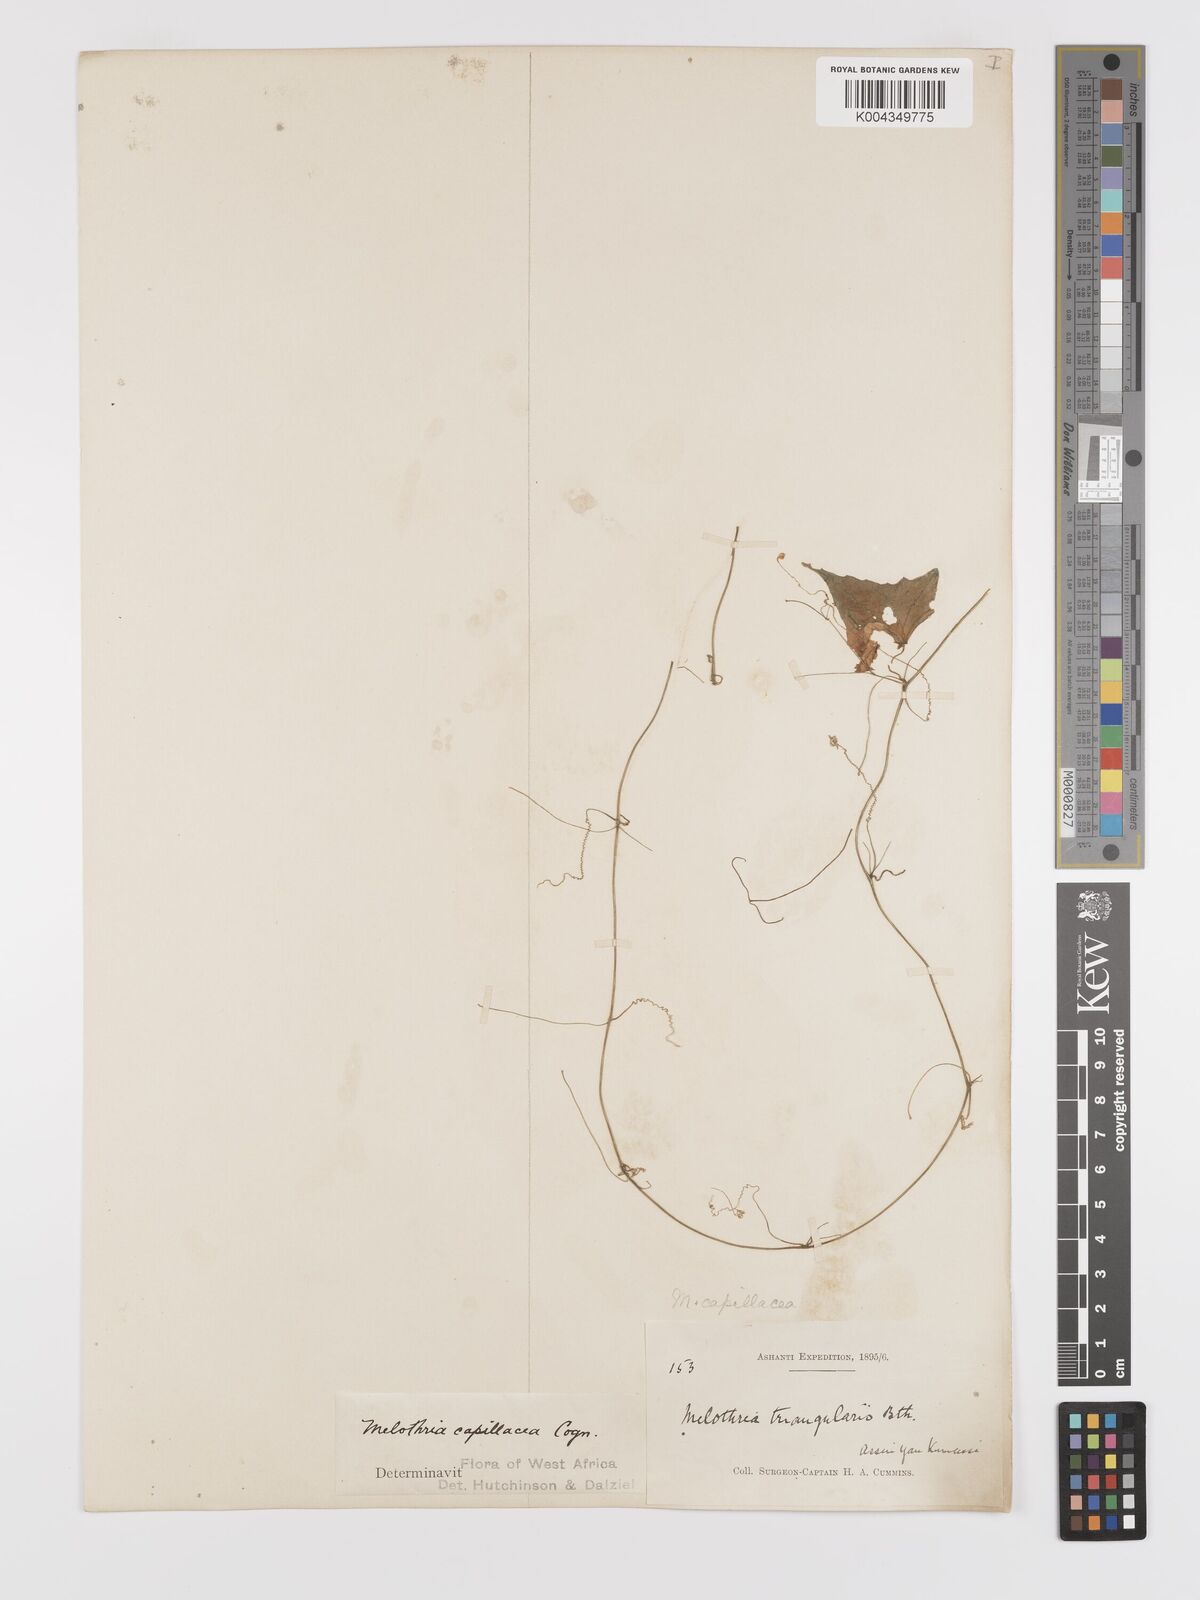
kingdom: Plantae
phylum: Tracheophyta
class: Magnoliopsida
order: Cucurbitales
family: Cucurbitaceae
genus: Zehneria
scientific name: Zehneria capillacea
